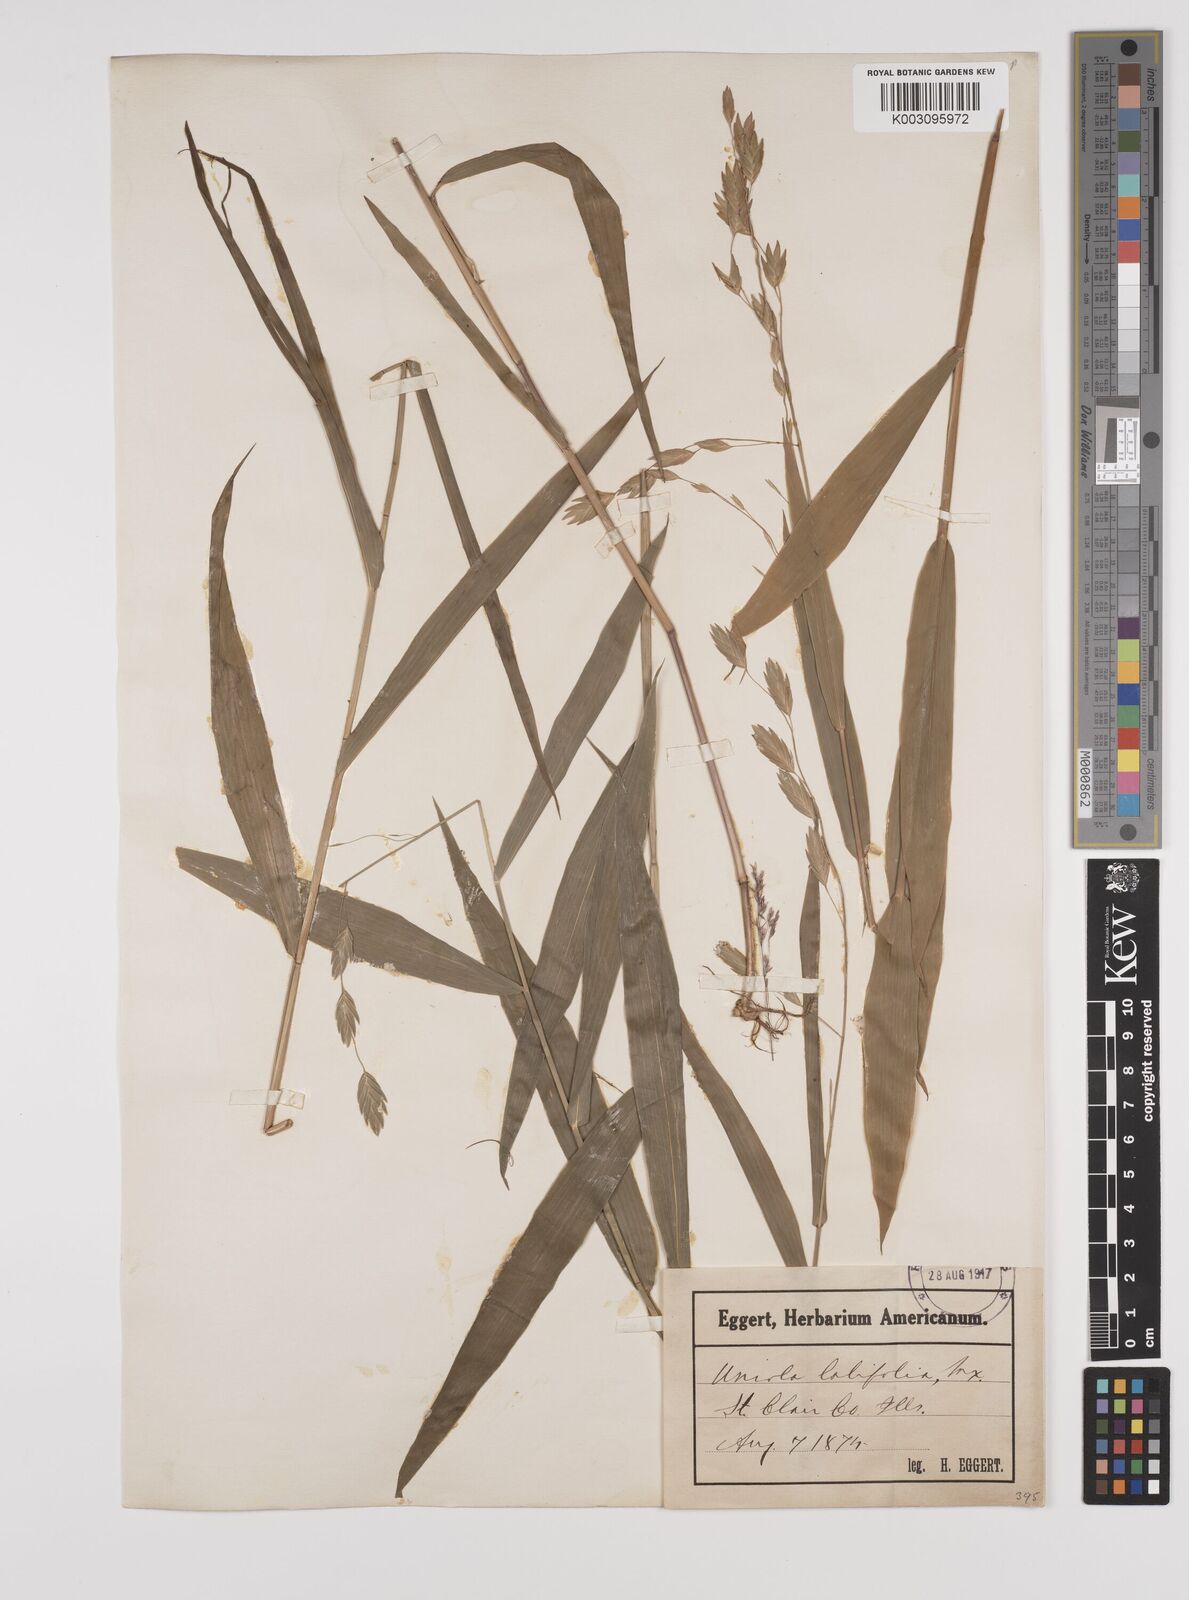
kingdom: Plantae
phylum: Tracheophyta
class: Liliopsida
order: Poales
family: Poaceae
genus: Chasmanthium
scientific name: Chasmanthium latifolium
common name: Broad-leaved chasmanthium
